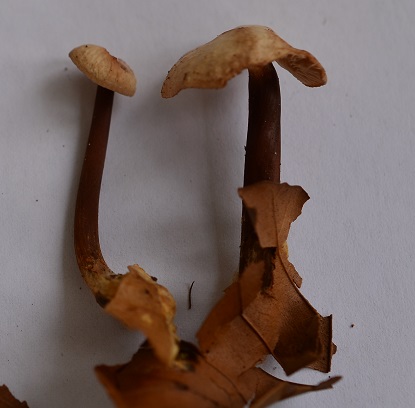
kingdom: Fungi
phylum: Basidiomycota
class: Agaricomycetes
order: Agaricales
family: Omphalotaceae
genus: Gymnopus
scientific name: Gymnopus fagiphilus
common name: bøgeløv-fladhat
